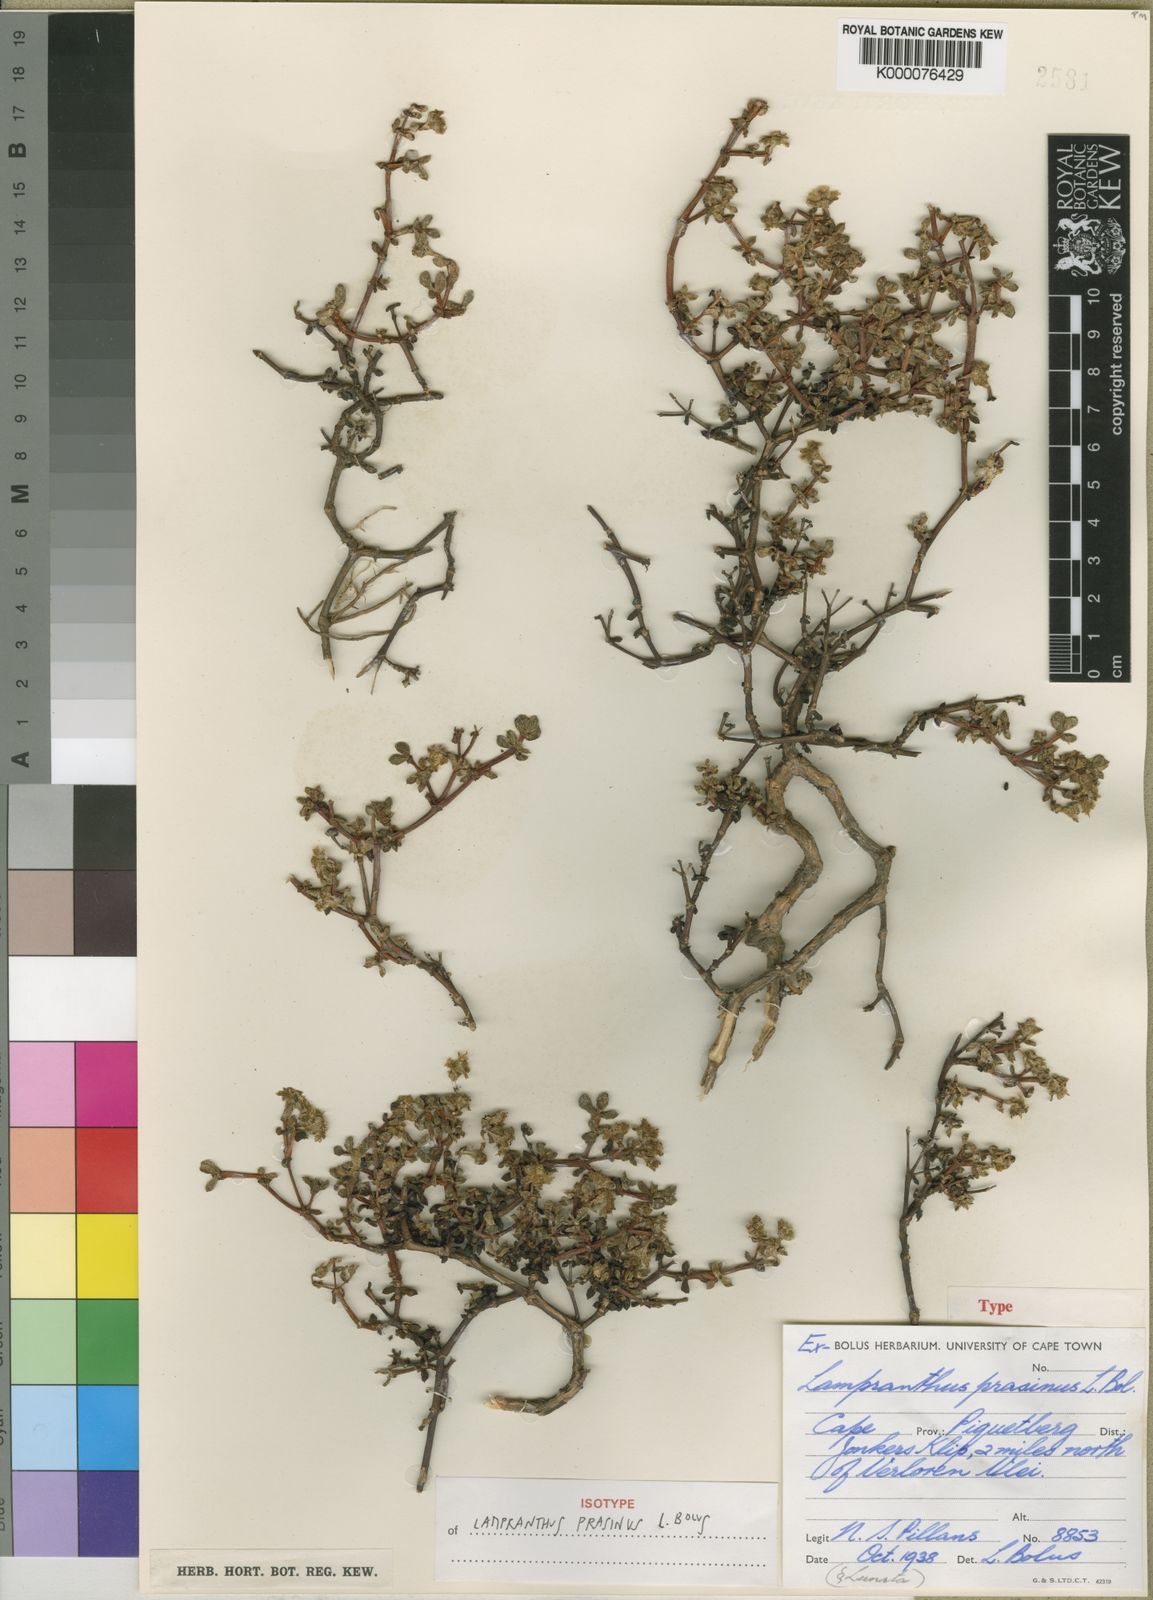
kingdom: Plantae
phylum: Tracheophyta
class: Magnoliopsida
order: Caryophyllales
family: Aizoaceae
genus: Oscularia
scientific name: Oscularia prasina
